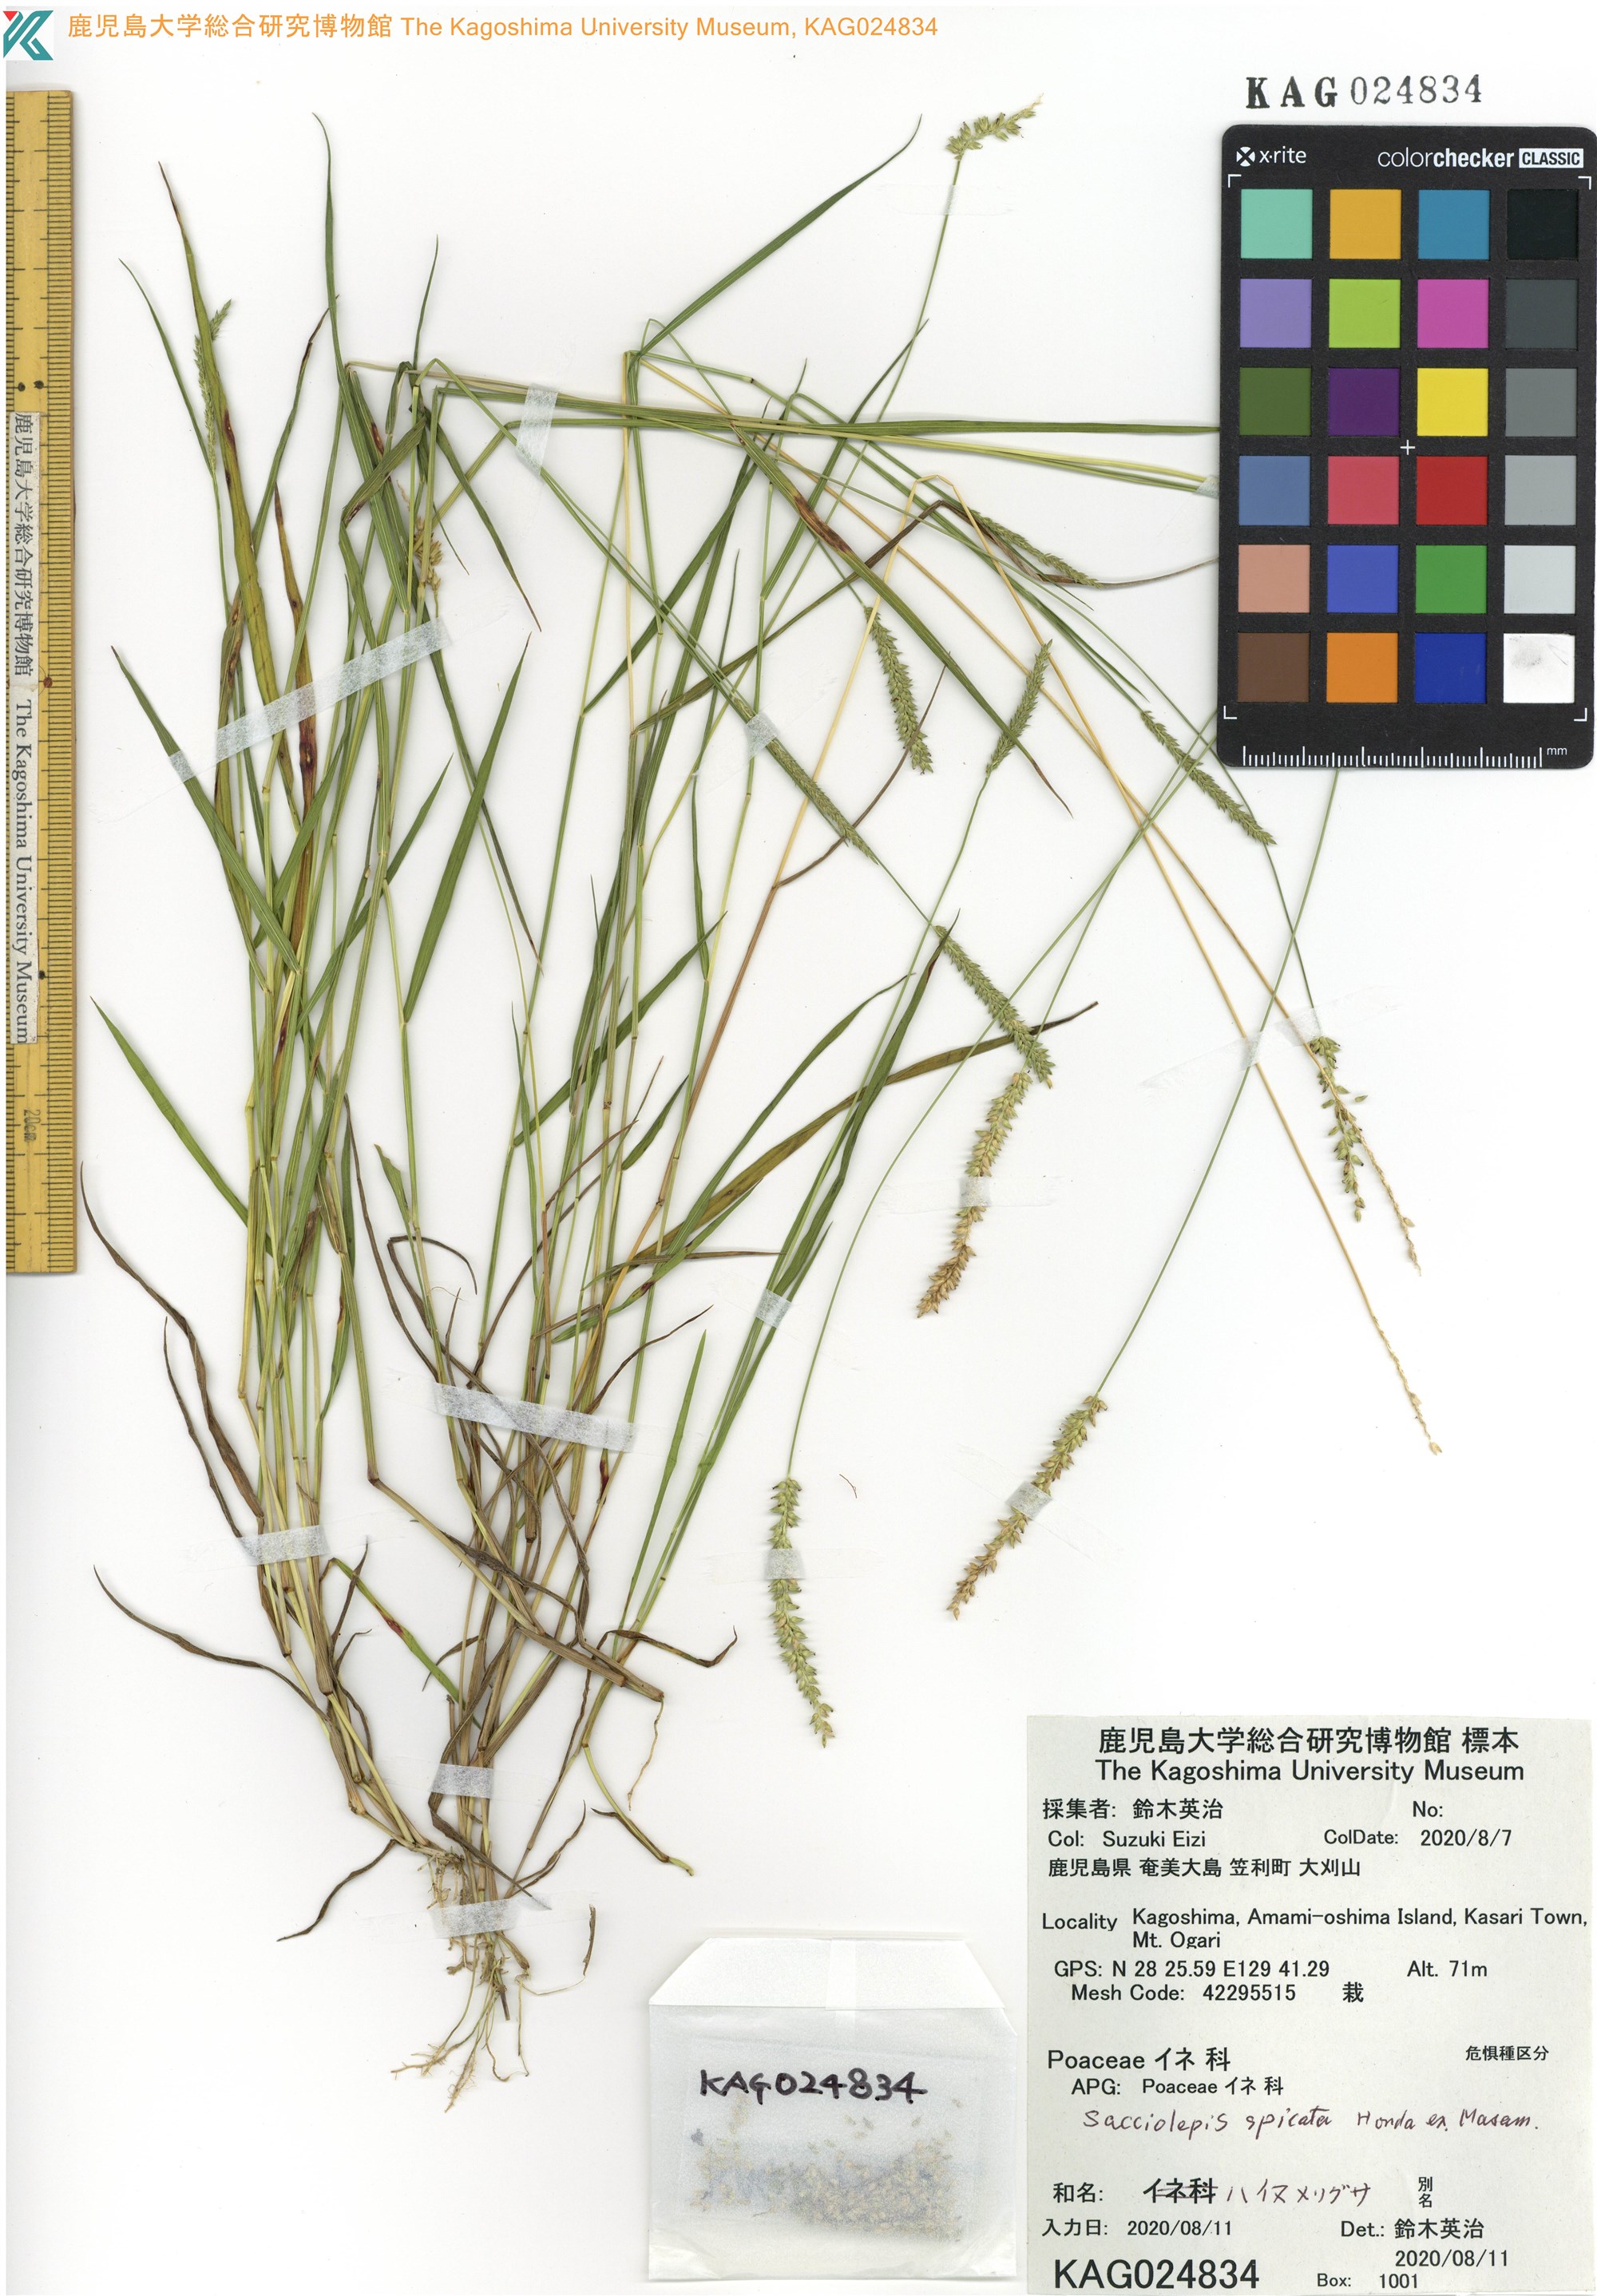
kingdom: Plantae
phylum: Tracheophyta
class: Liliopsida
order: Poales
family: Poaceae
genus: Sacciolepis
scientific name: Sacciolepis indica
